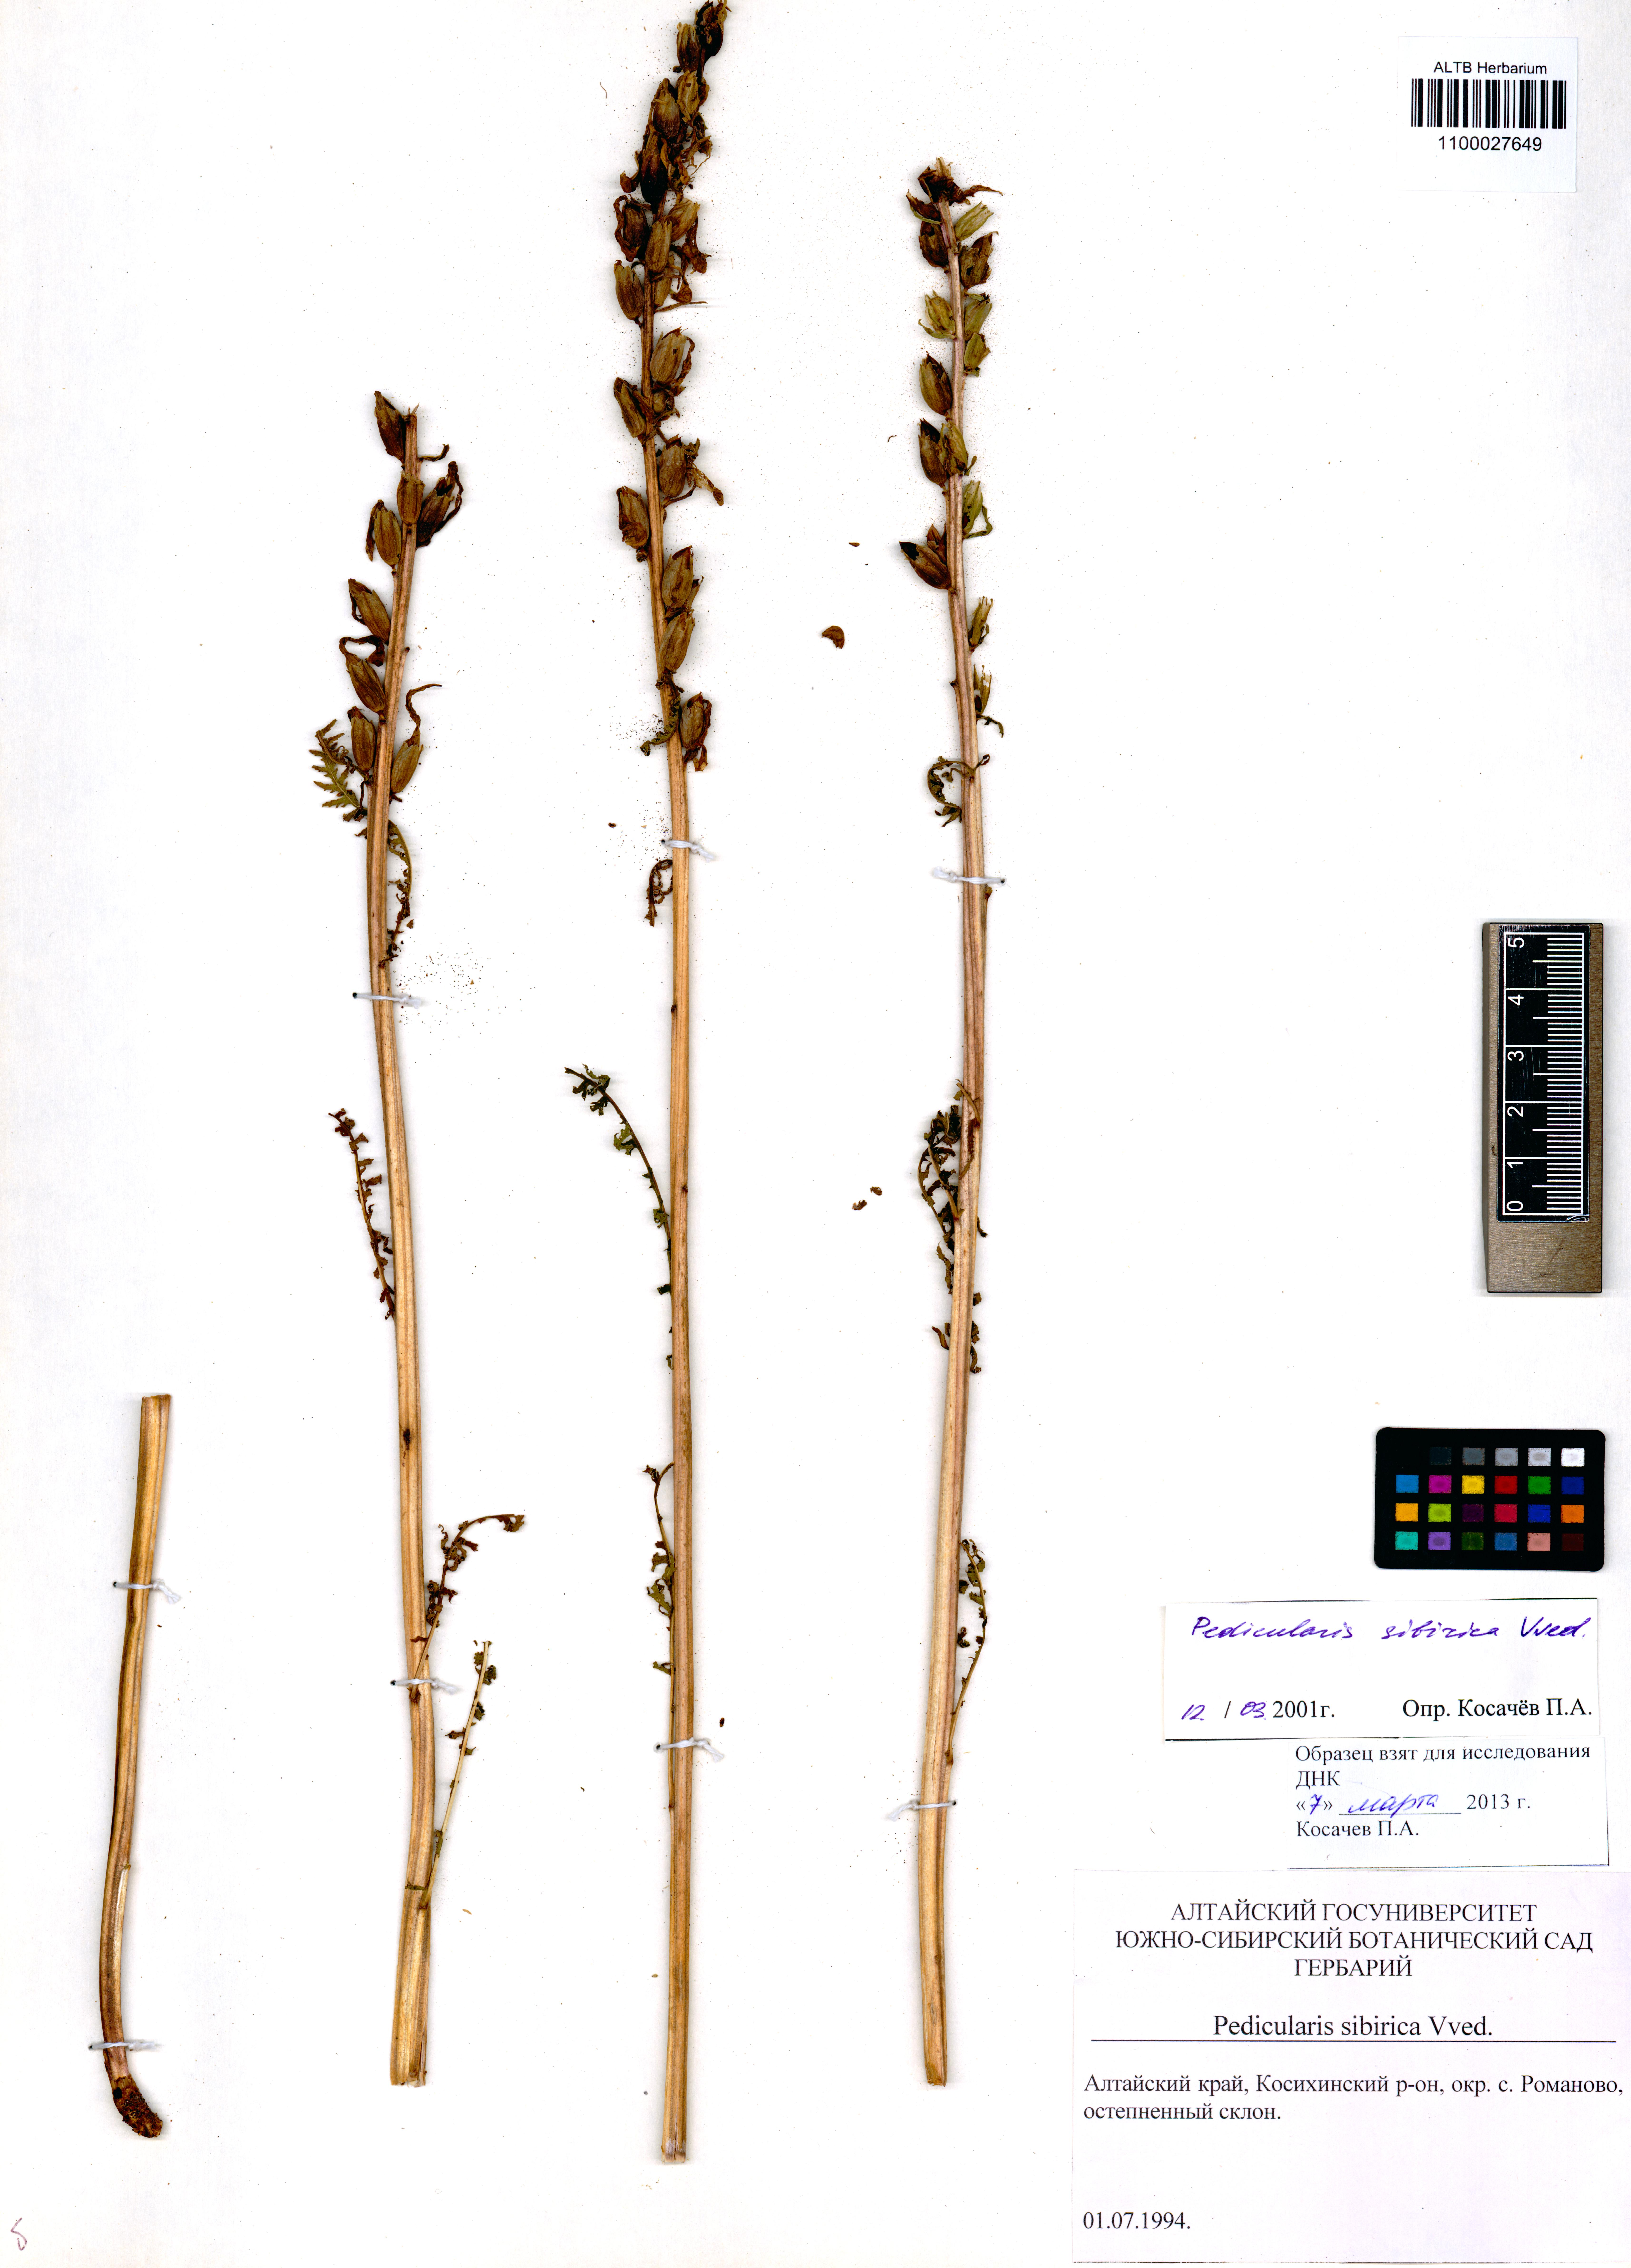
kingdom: Plantae
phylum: Tracheophyta
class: Magnoliopsida
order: Lamiales
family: Orobanchaceae
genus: Pedicularis
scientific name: Pedicularis sibirica
